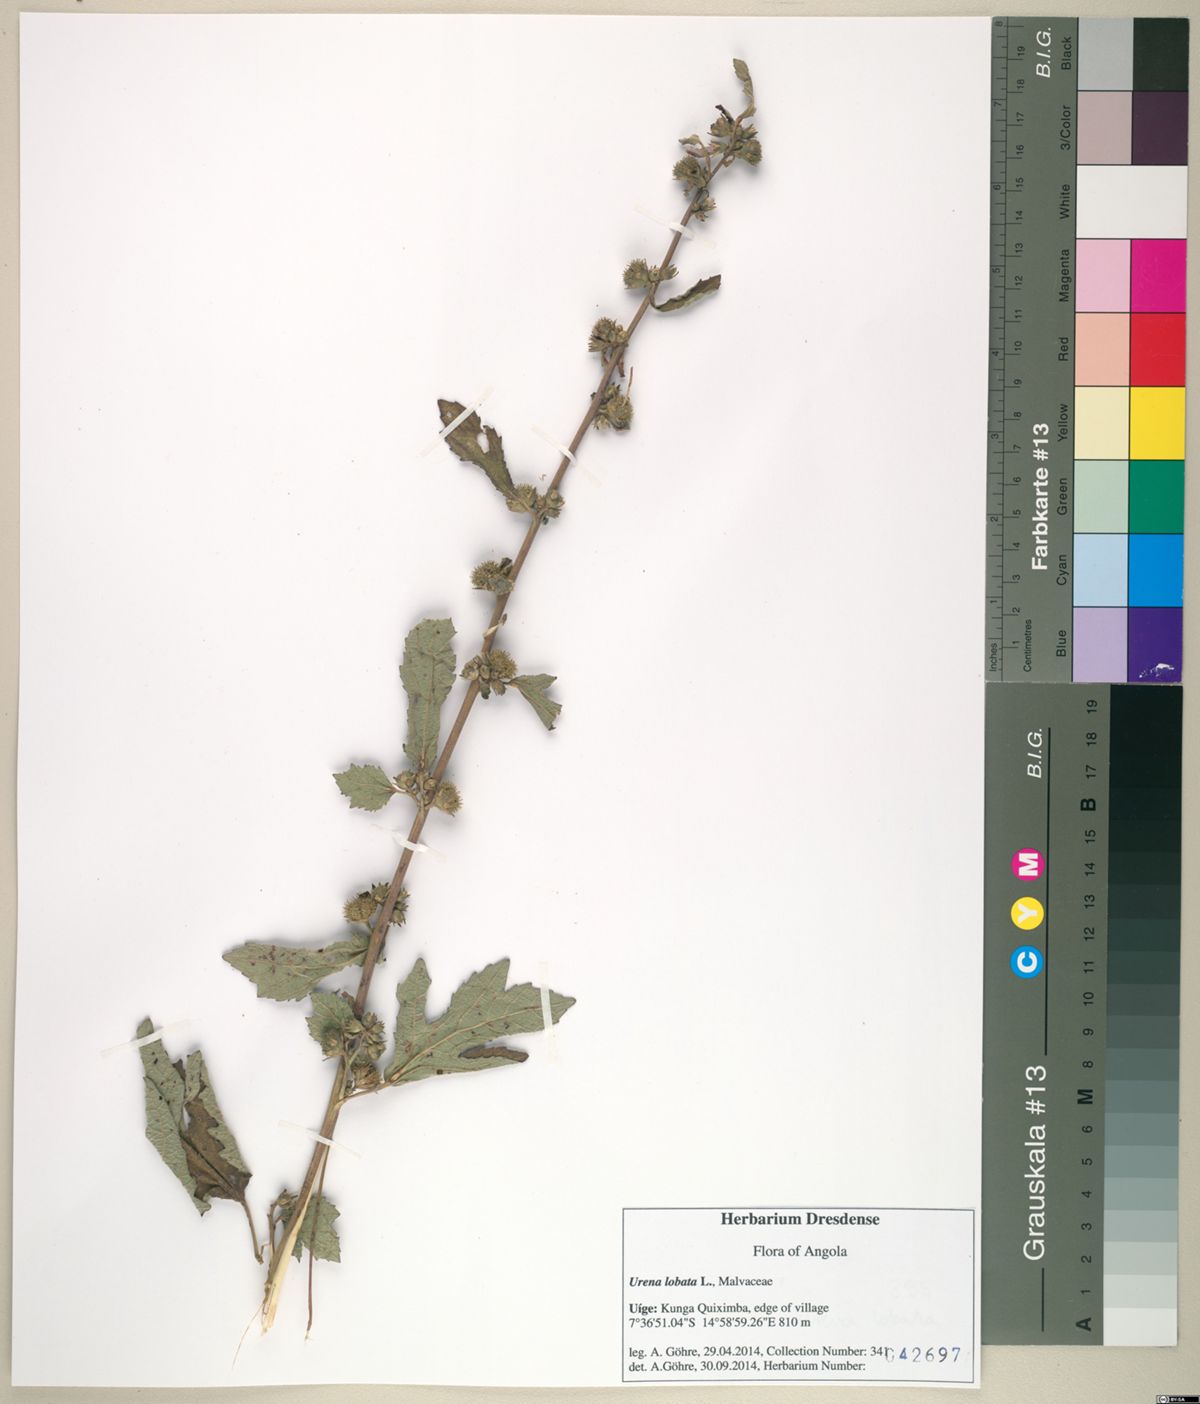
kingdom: Plantae
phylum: Tracheophyta
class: Magnoliopsida
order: Malvales
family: Malvaceae
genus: Urena
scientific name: Urena lobata
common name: Caesarweed
